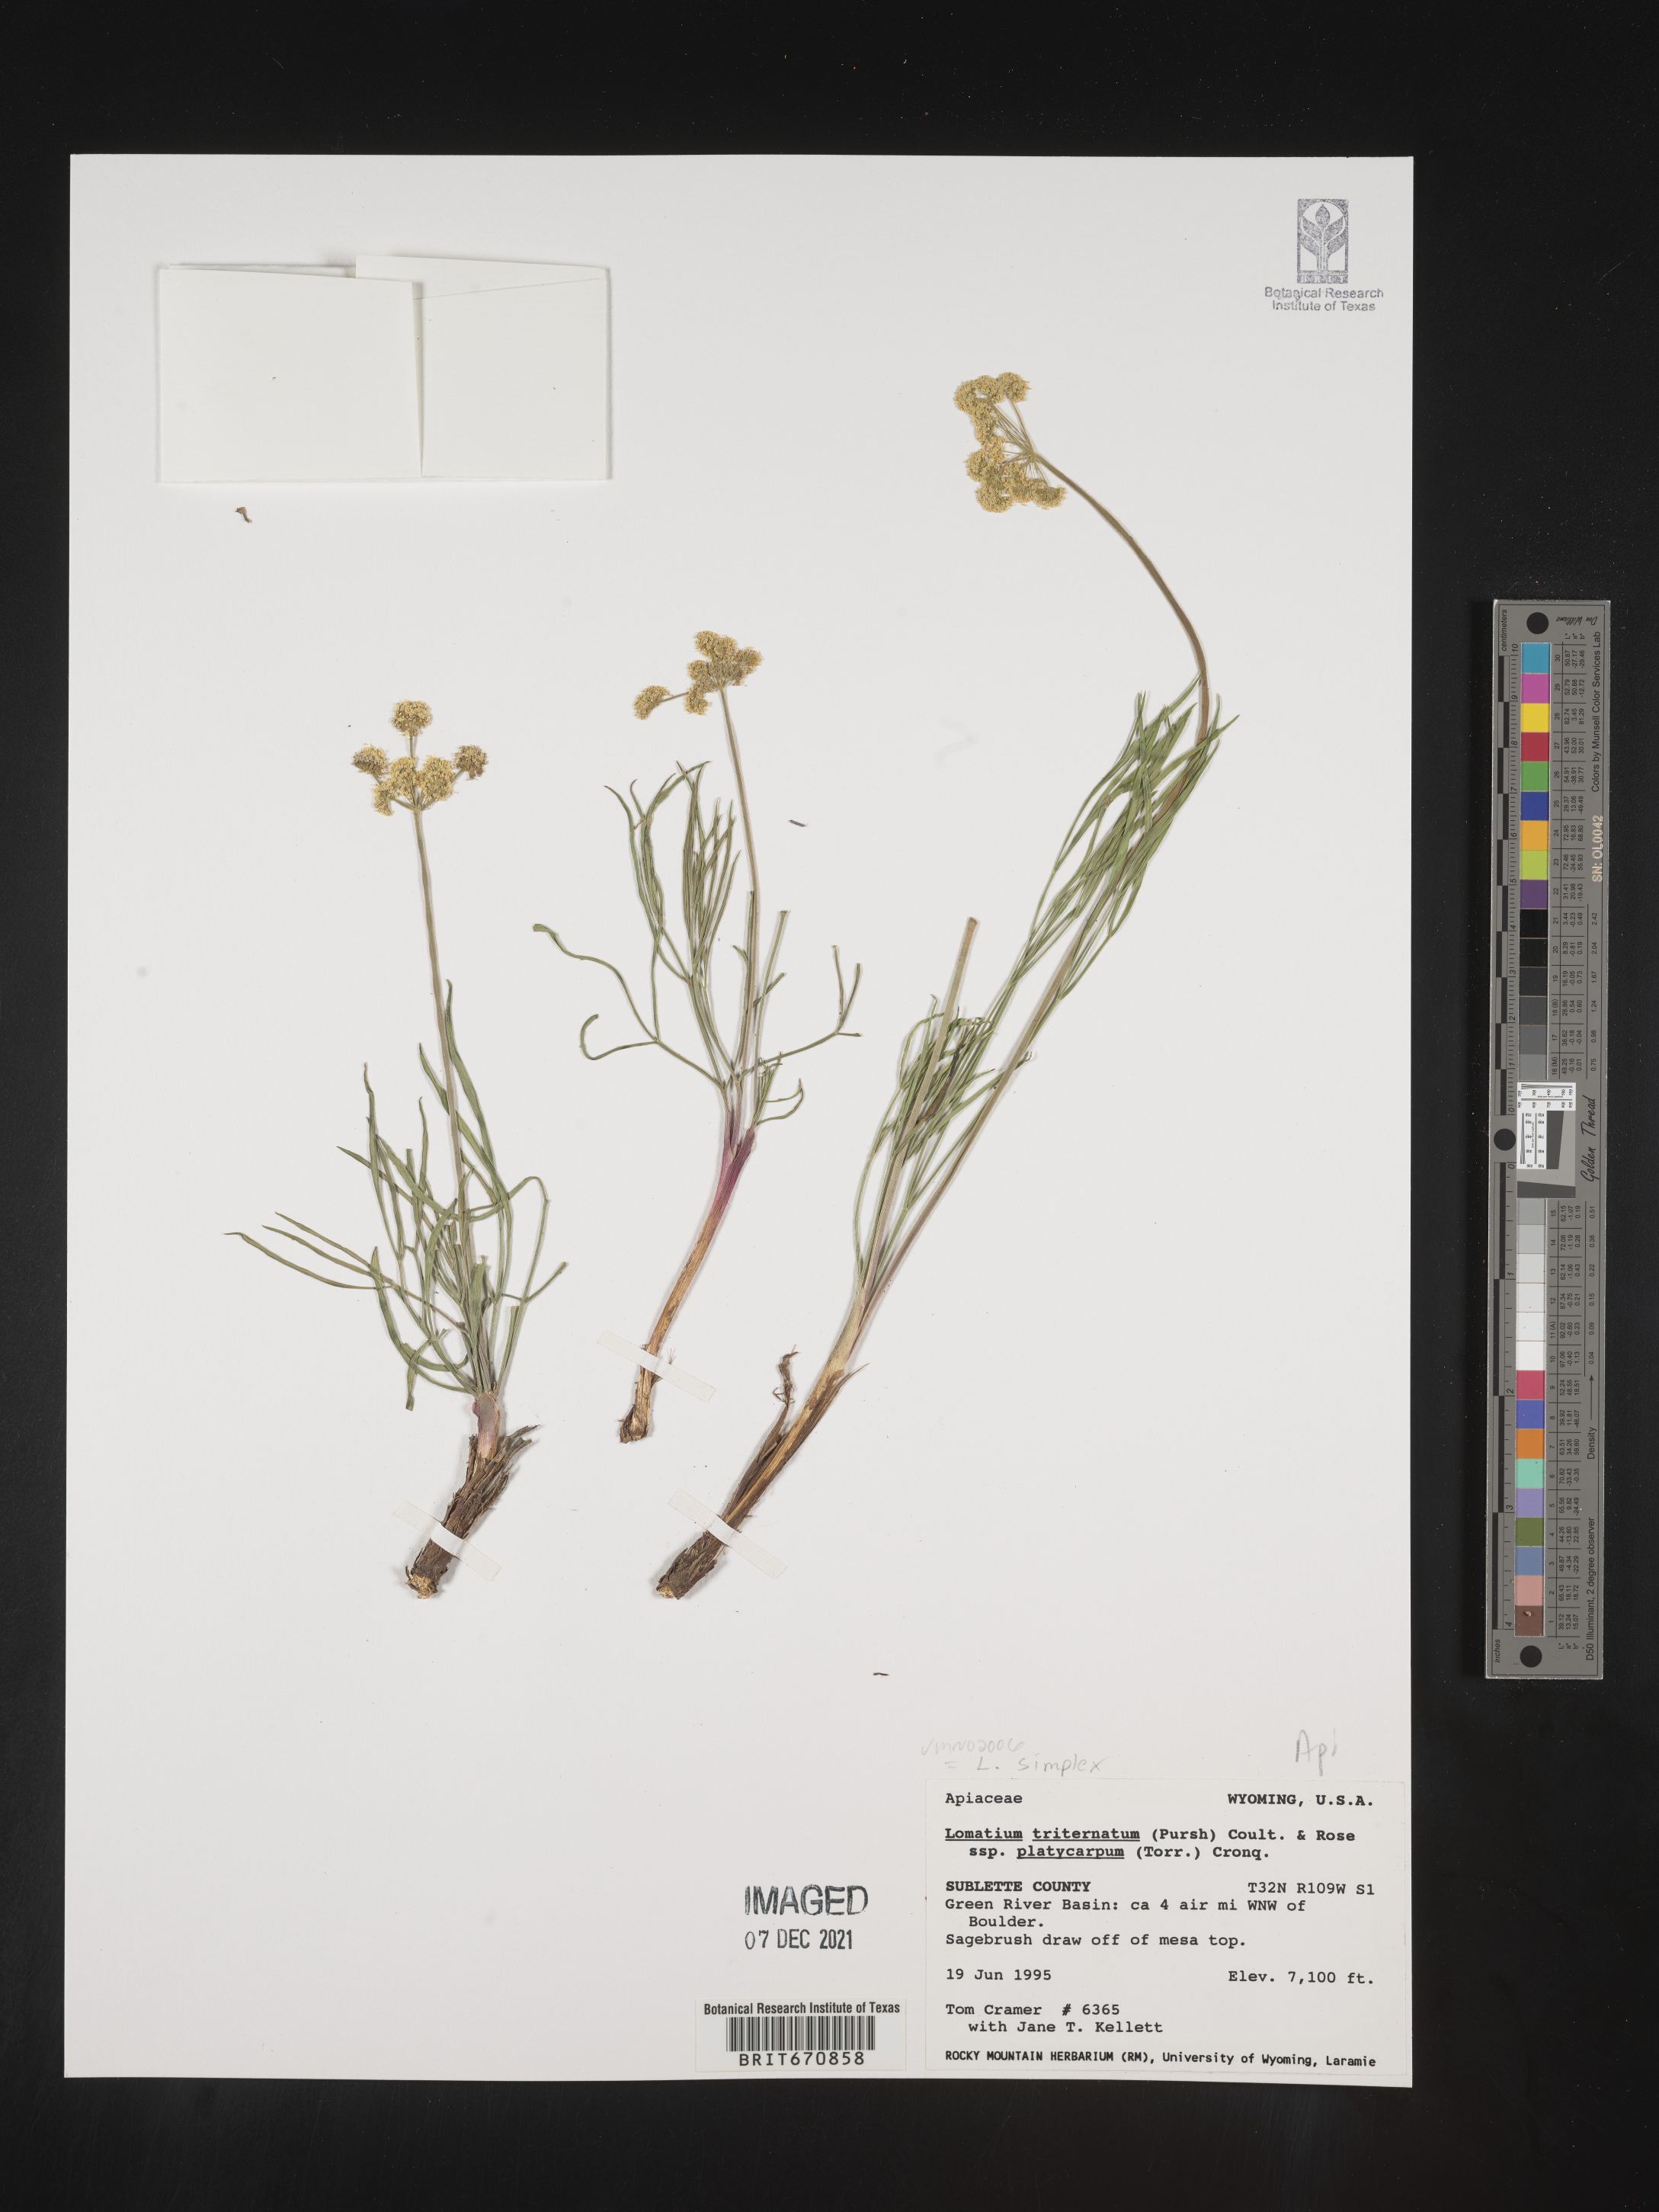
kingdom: Plantae
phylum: Tracheophyta
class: Magnoliopsida
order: Apiales
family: Apiaceae
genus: Lomatium
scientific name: Lomatium triternatum
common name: Ternate lomatium
